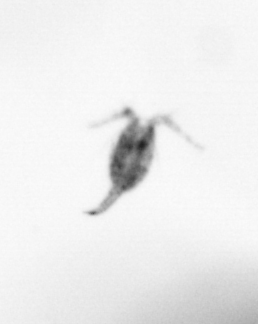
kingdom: Animalia
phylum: Arthropoda
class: Copepoda
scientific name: Copepoda
